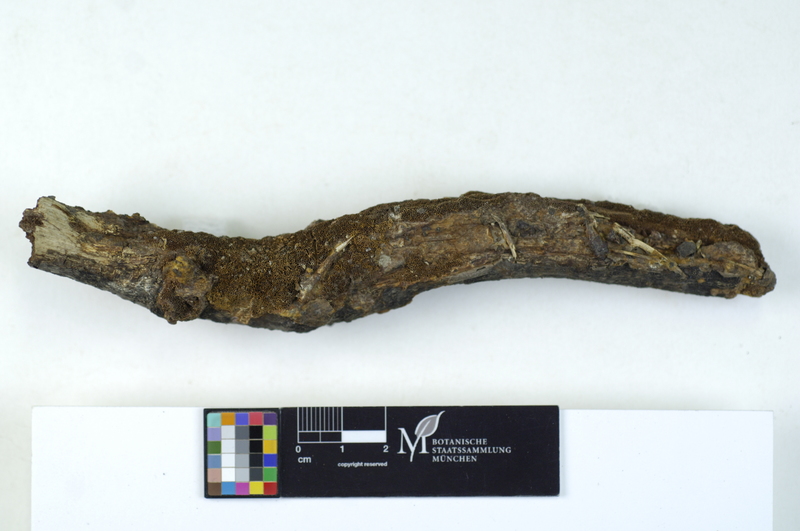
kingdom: Plantae
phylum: Tracheophyta
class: Magnoliopsida
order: Fagales
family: Fagaceae
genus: Quercus
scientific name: Quercus
